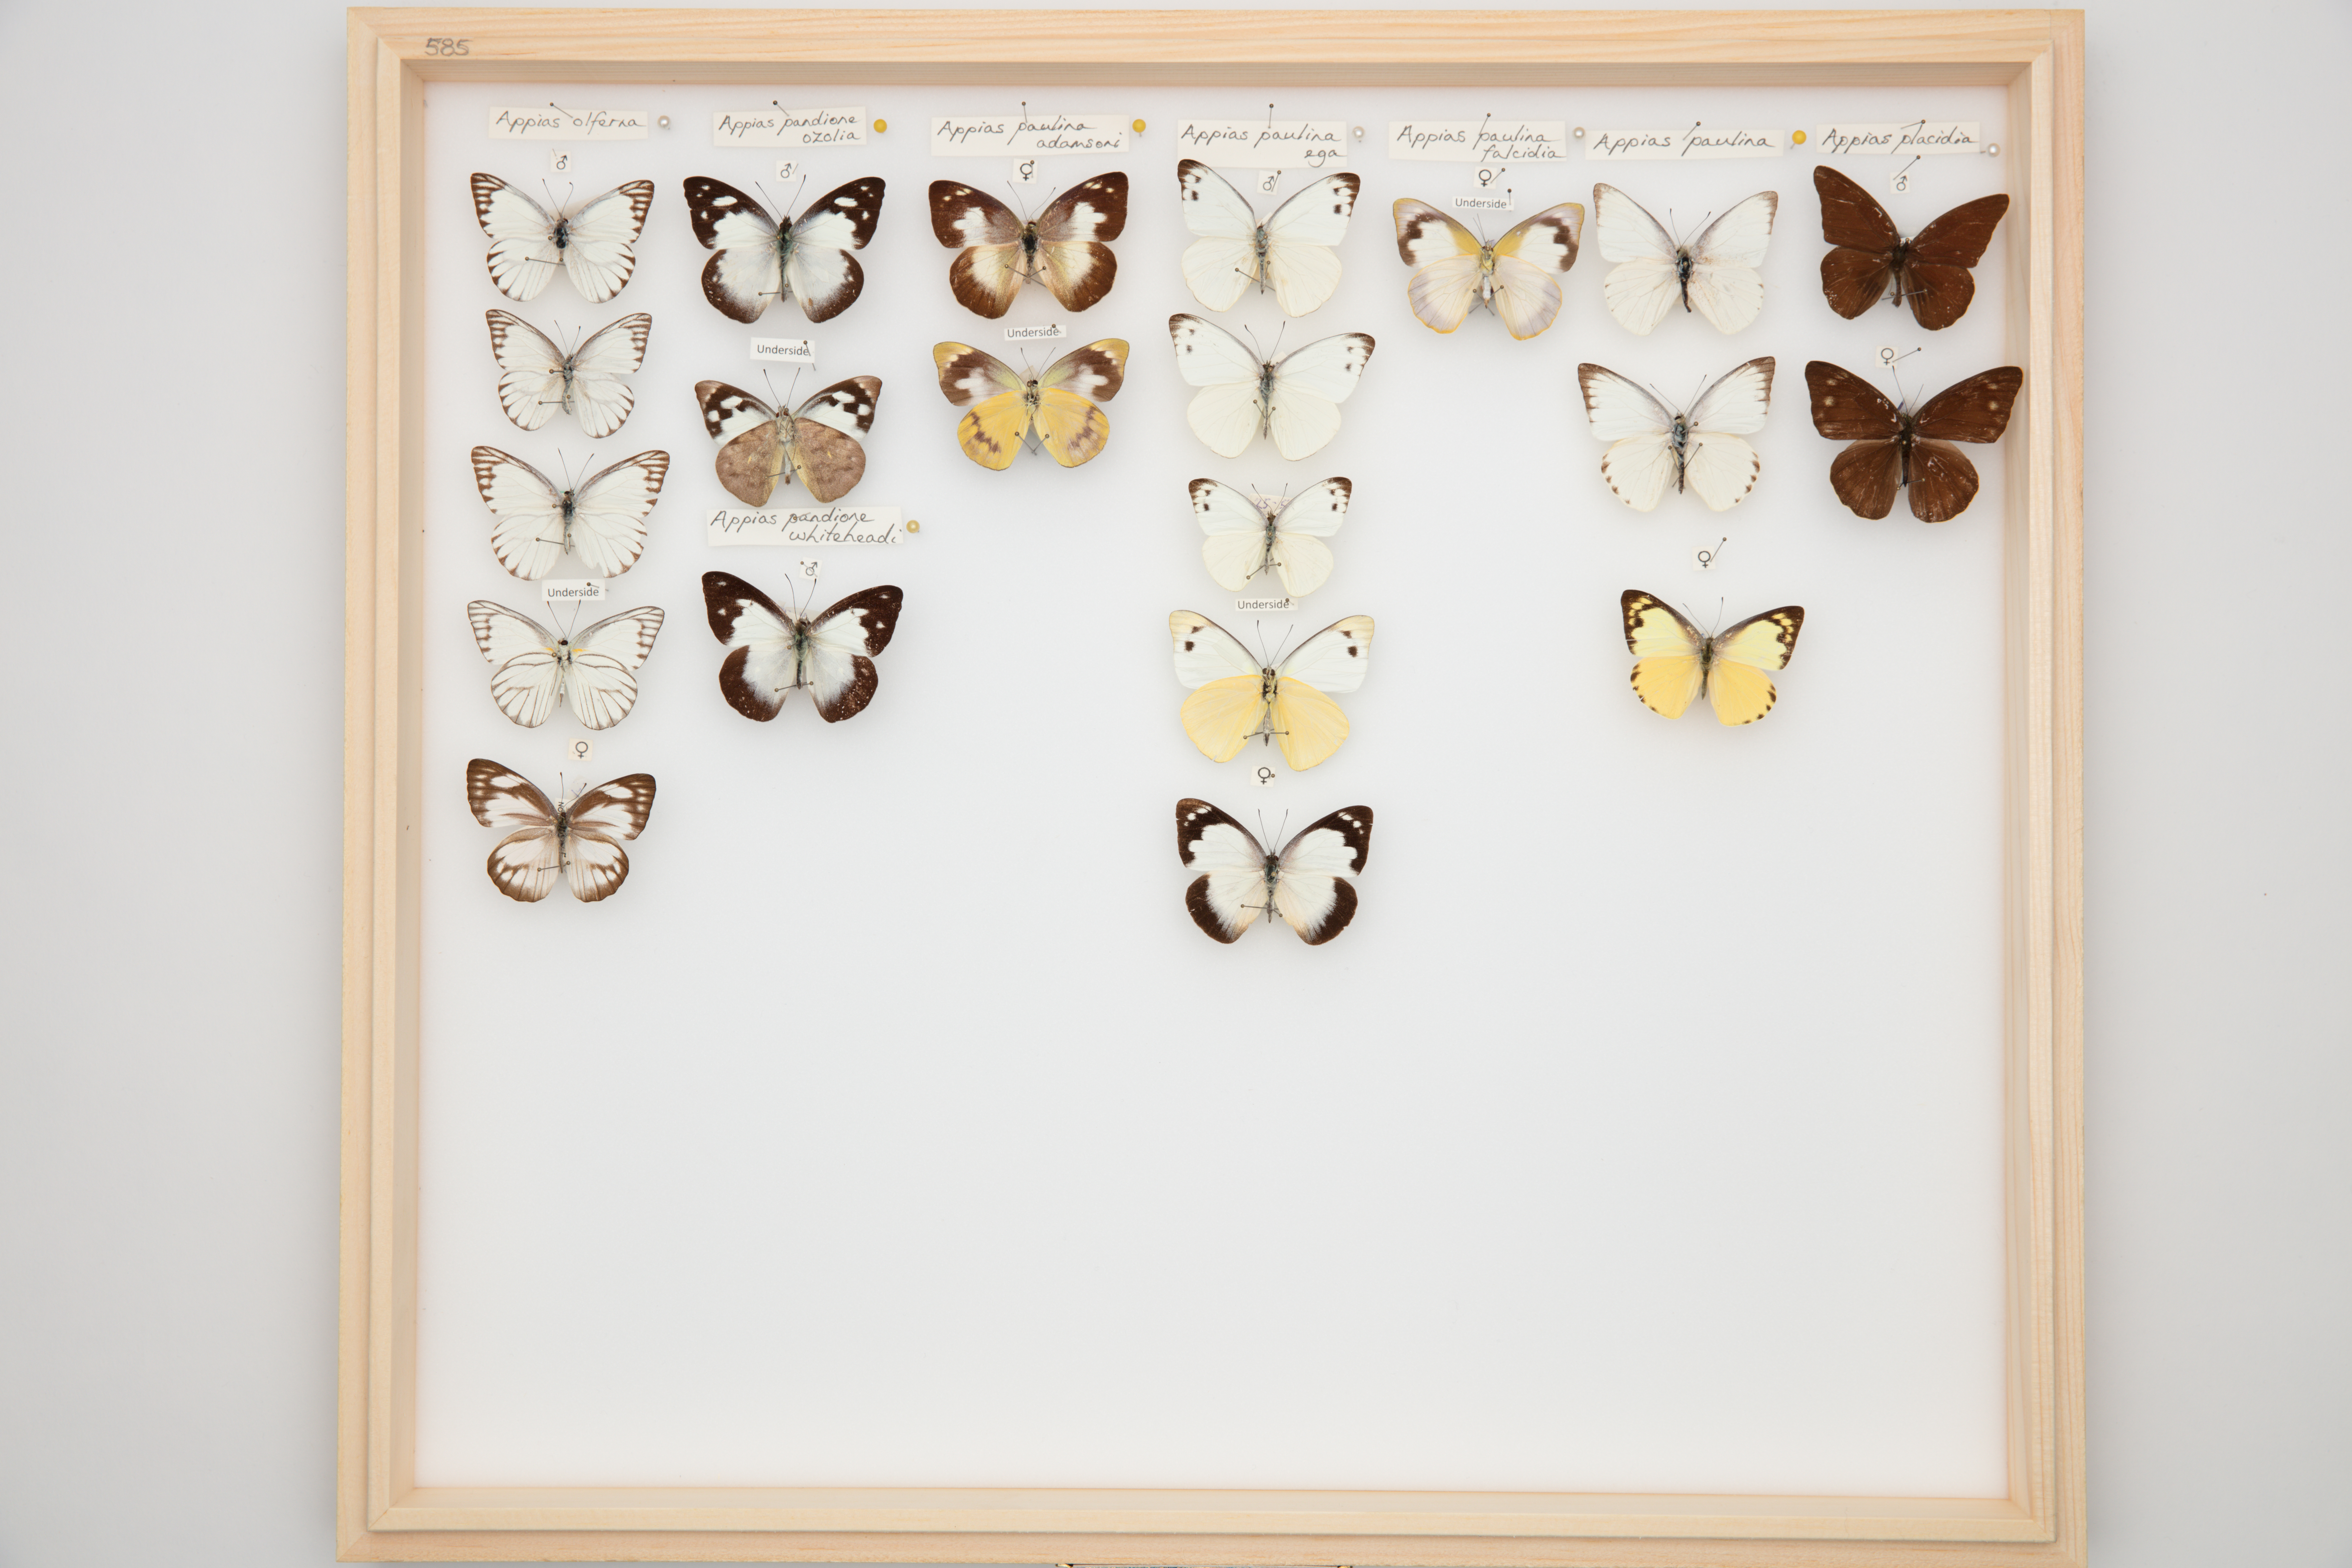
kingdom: Animalia
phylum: Arthropoda
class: Insecta
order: Lepidoptera
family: Pieridae
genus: Appias
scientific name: Appias pandione
